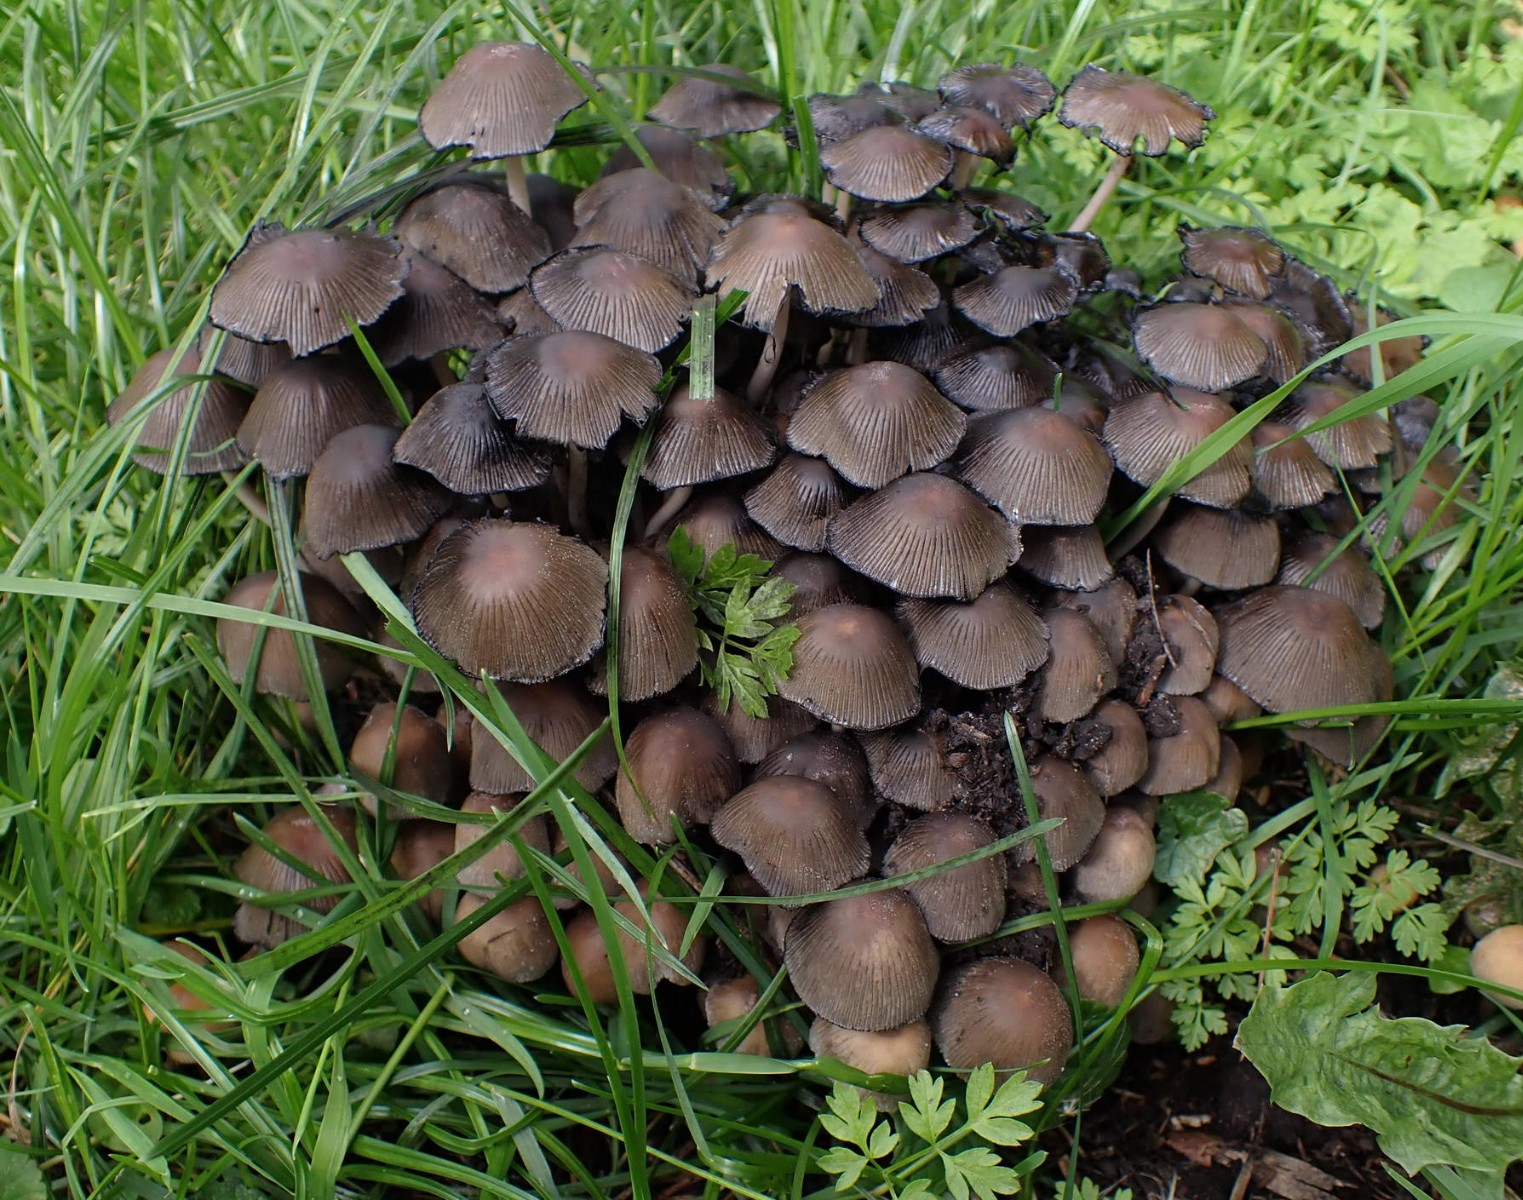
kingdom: Fungi
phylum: Basidiomycota
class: Agaricomycetes
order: Agaricales
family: Psathyrellaceae
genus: Coprinellus
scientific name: Coprinellus micaceus
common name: glimmer-blækhat
